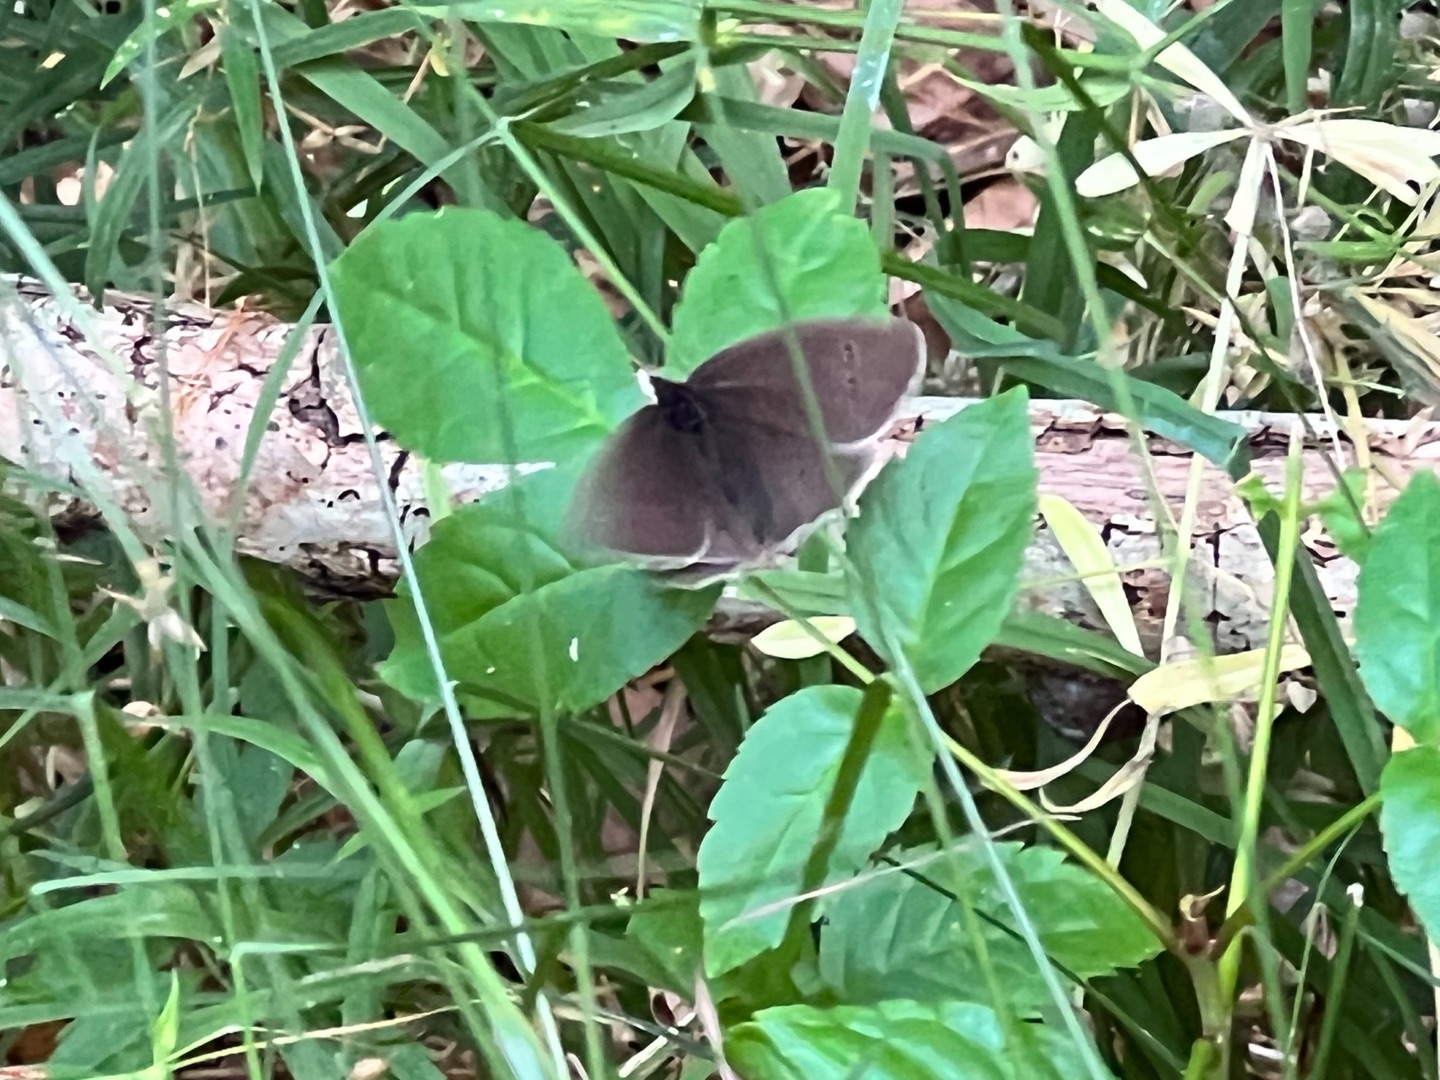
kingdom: Animalia
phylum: Arthropoda
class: Insecta
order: Lepidoptera
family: Nymphalidae
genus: Aphantopus
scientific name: Aphantopus hyperantus
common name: Engrandøje
